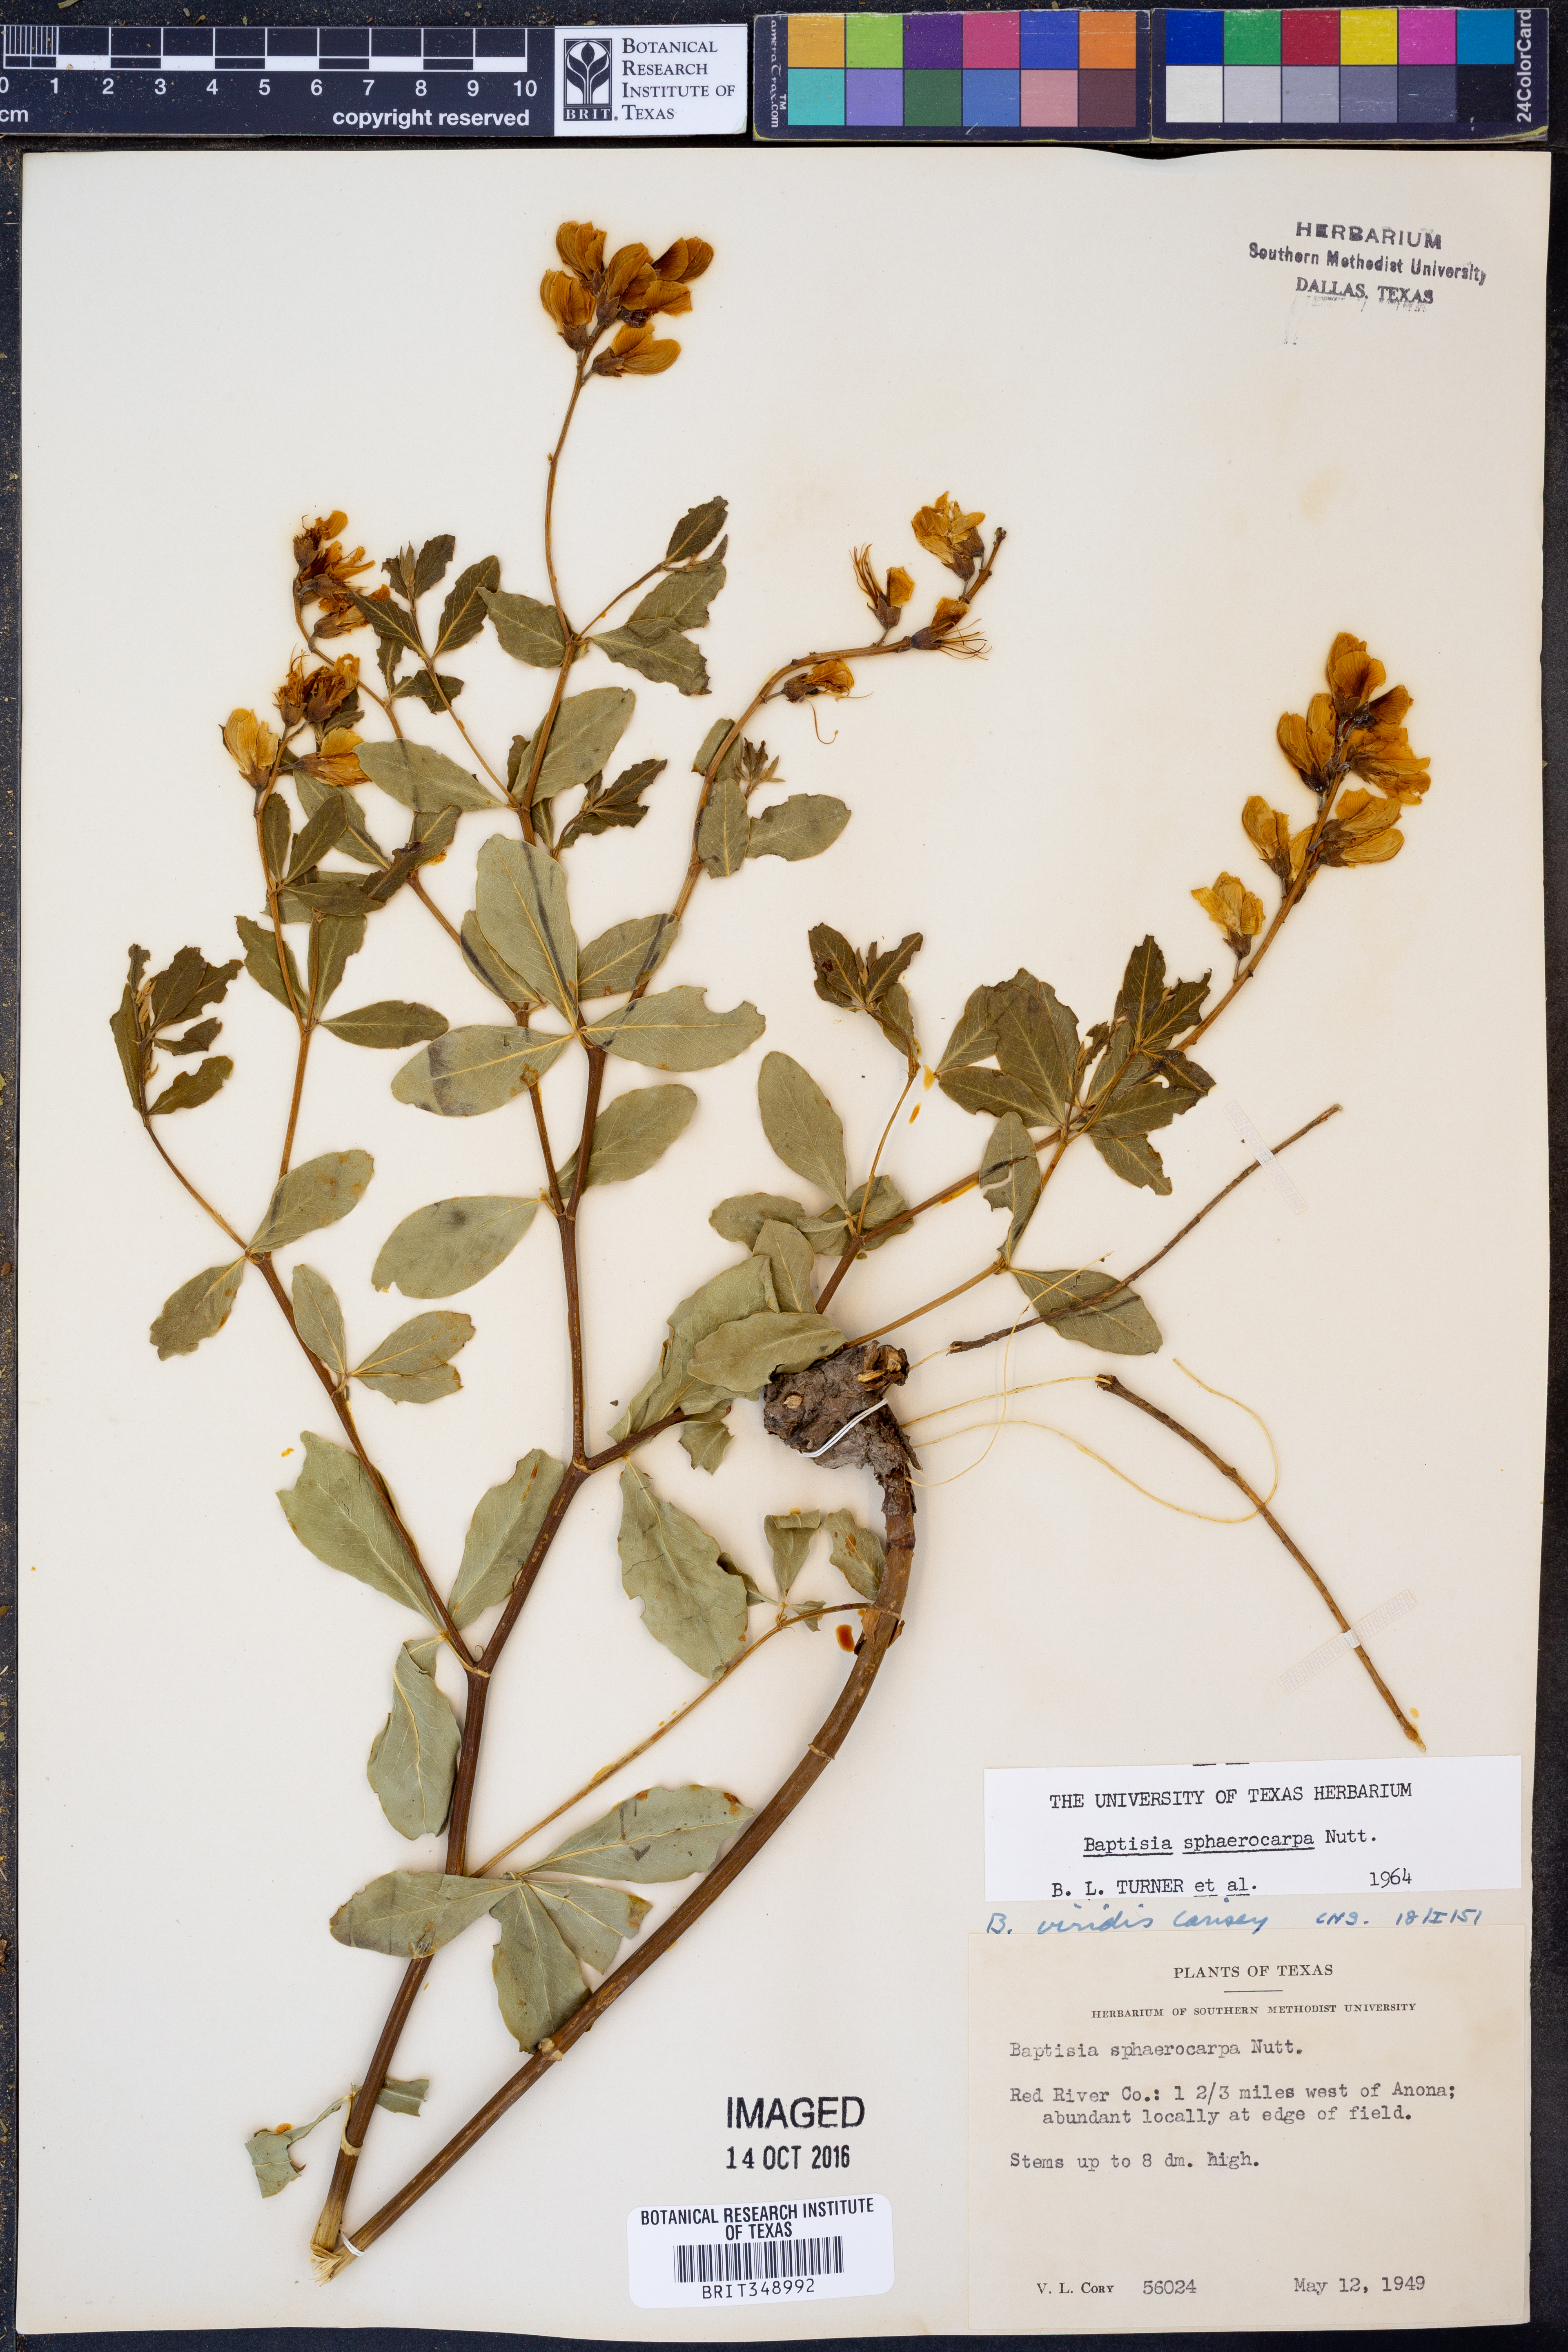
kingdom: Plantae
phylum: Tracheophyta
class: Magnoliopsida
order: Fabales
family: Fabaceae
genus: Baptisia
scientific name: Baptisia sphaerocarpa
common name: Round wild indigo
